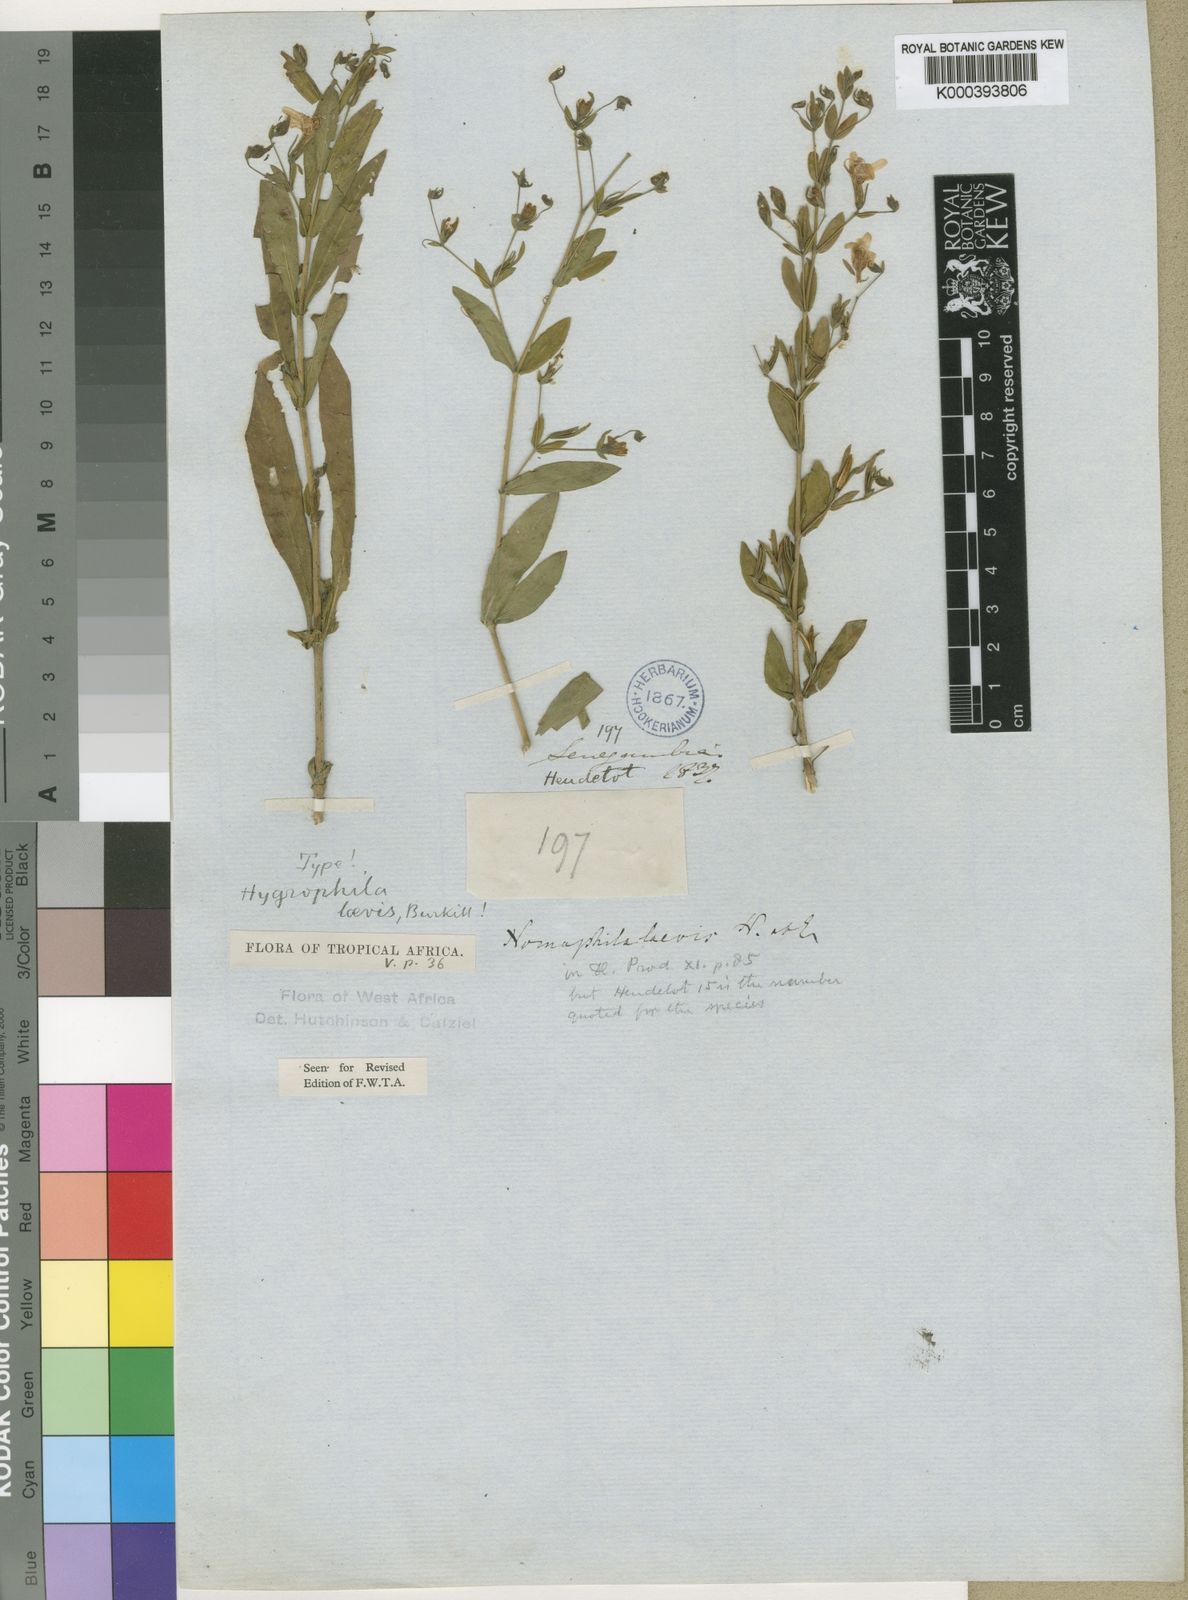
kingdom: Plantae
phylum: Tracheophyta
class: Magnoliopsida
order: Lamiales
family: Acanthaceae
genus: Hygrophila
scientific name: Hygrophila laevis
